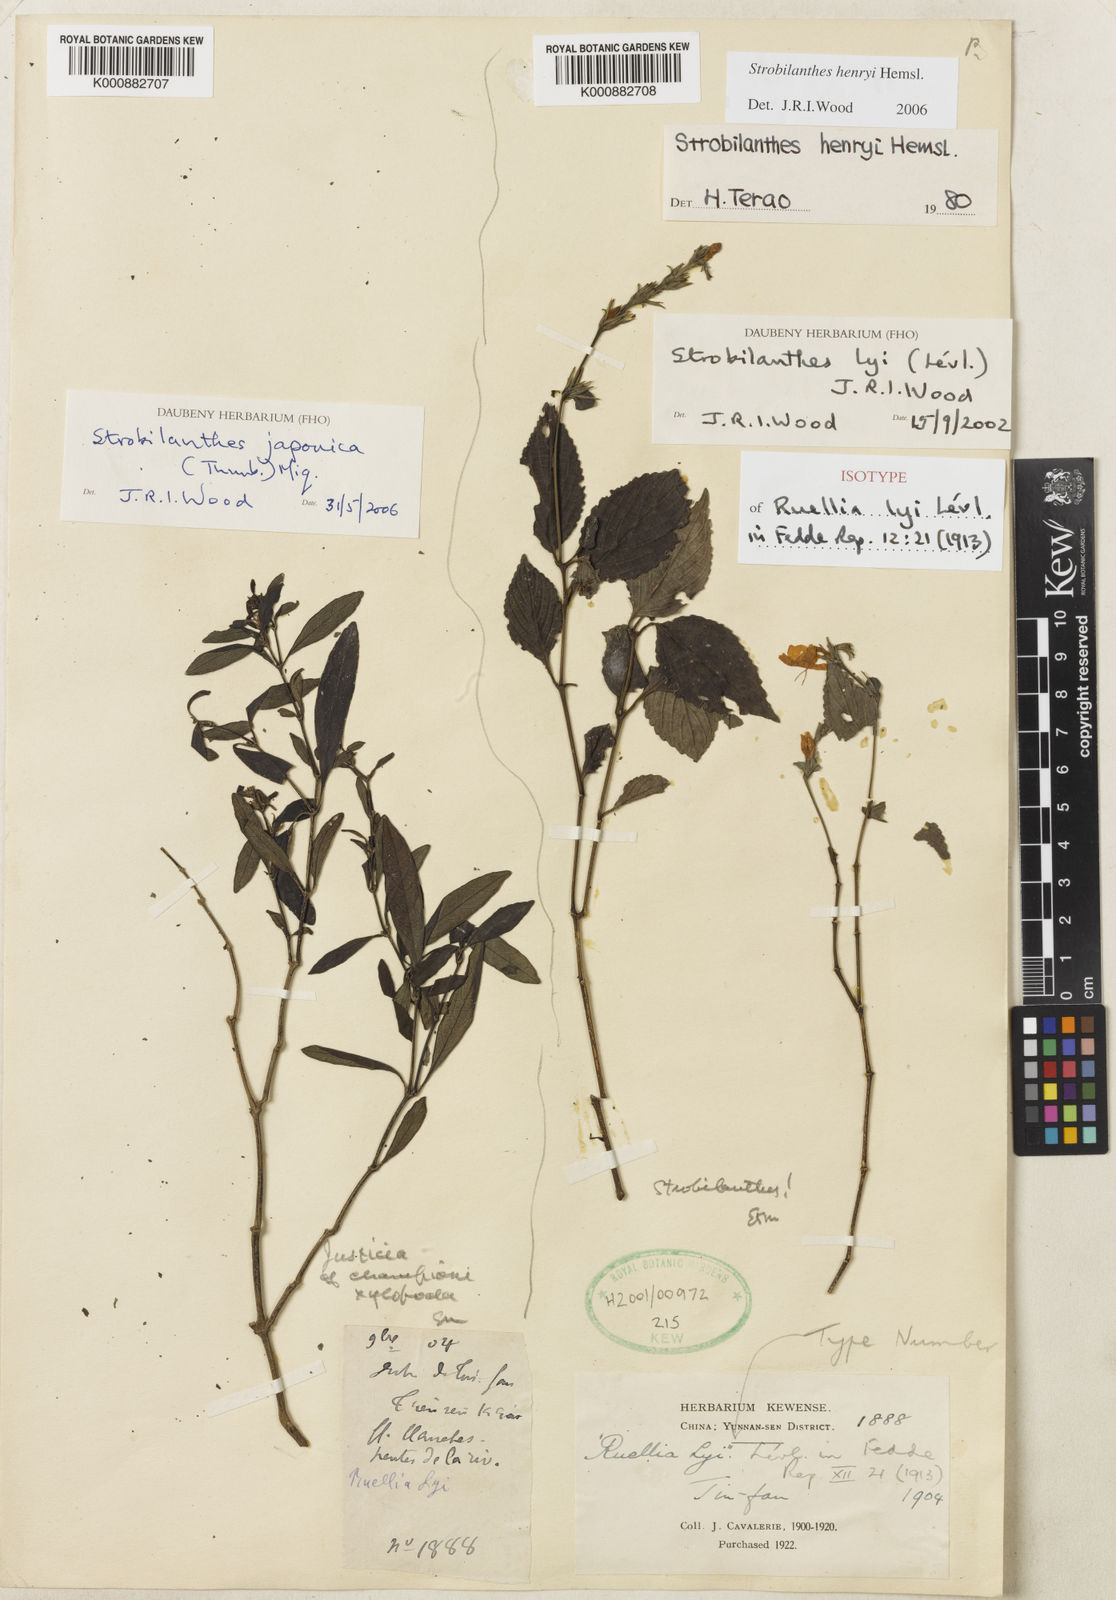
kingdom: Plantae
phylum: Tracheophyta
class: Magnoliopsida
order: Lamiales
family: Acanthaceae
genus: Strobilanthes
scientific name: Strobilanthes henryi
